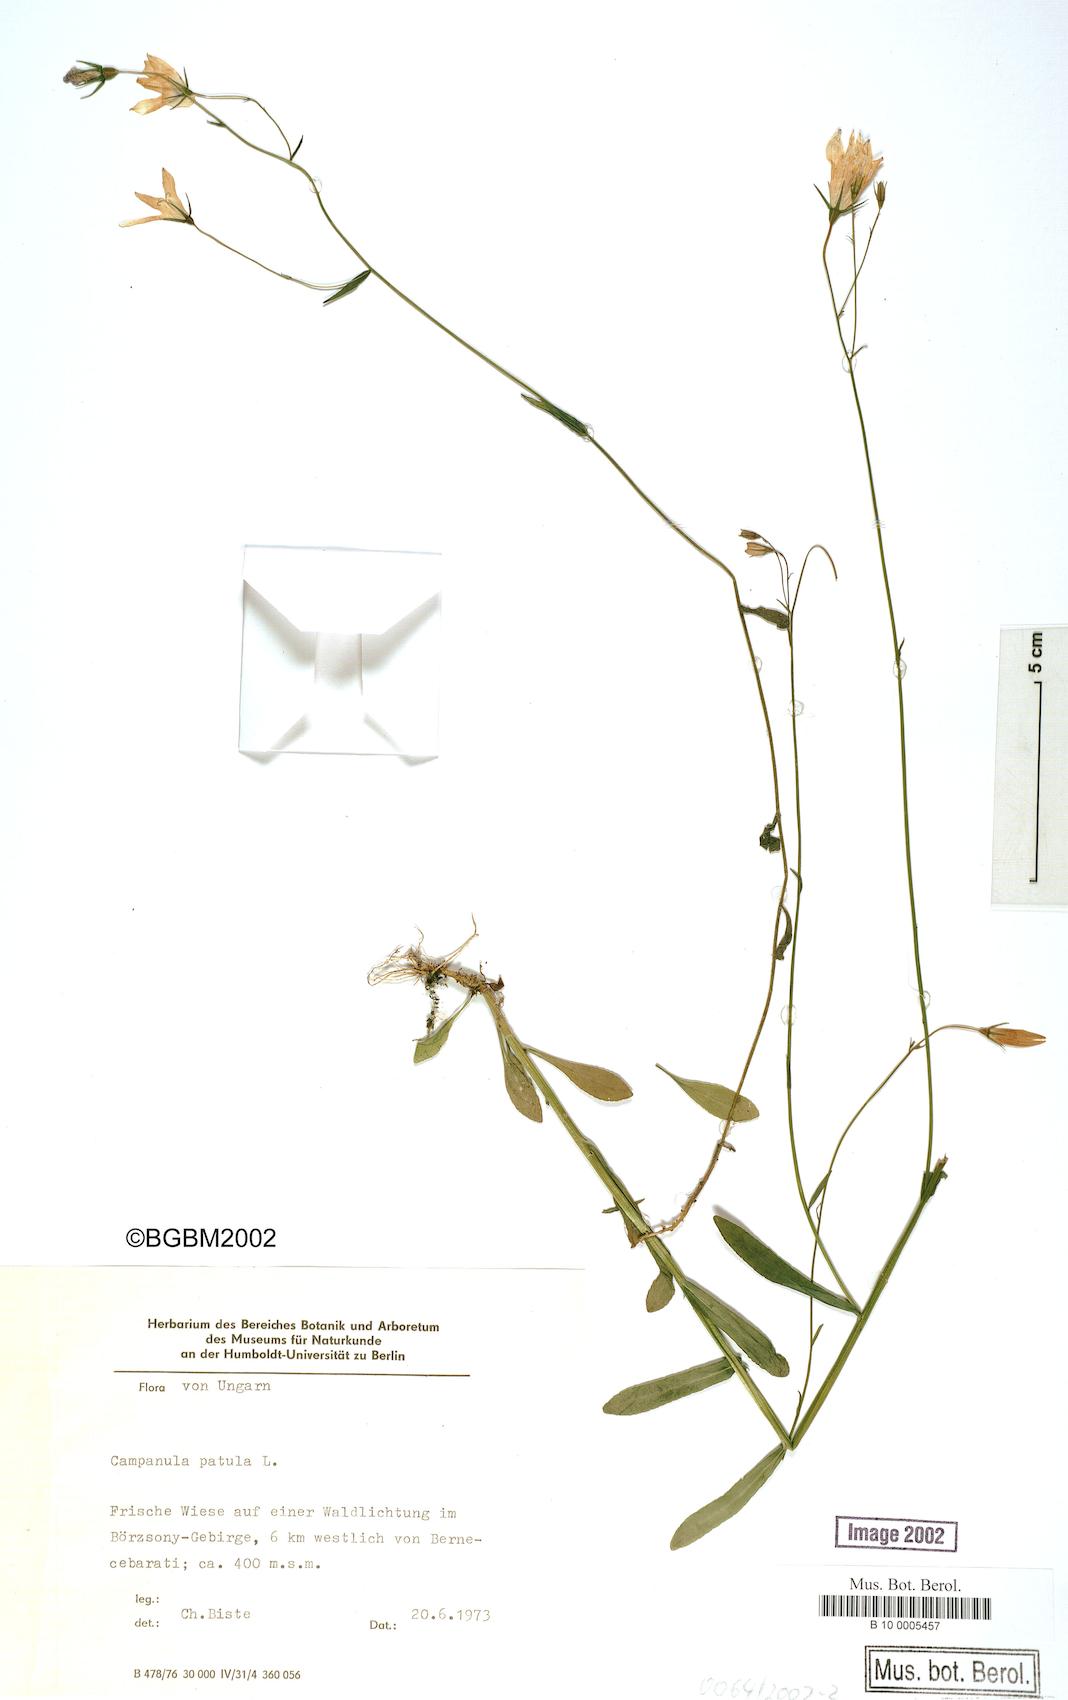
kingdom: Plantae
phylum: Tracheophyta
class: Magnoliopsida
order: Asterales
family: Campanulaceae
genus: Campanula
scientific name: Campanula patula
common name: Spreading bellflower
